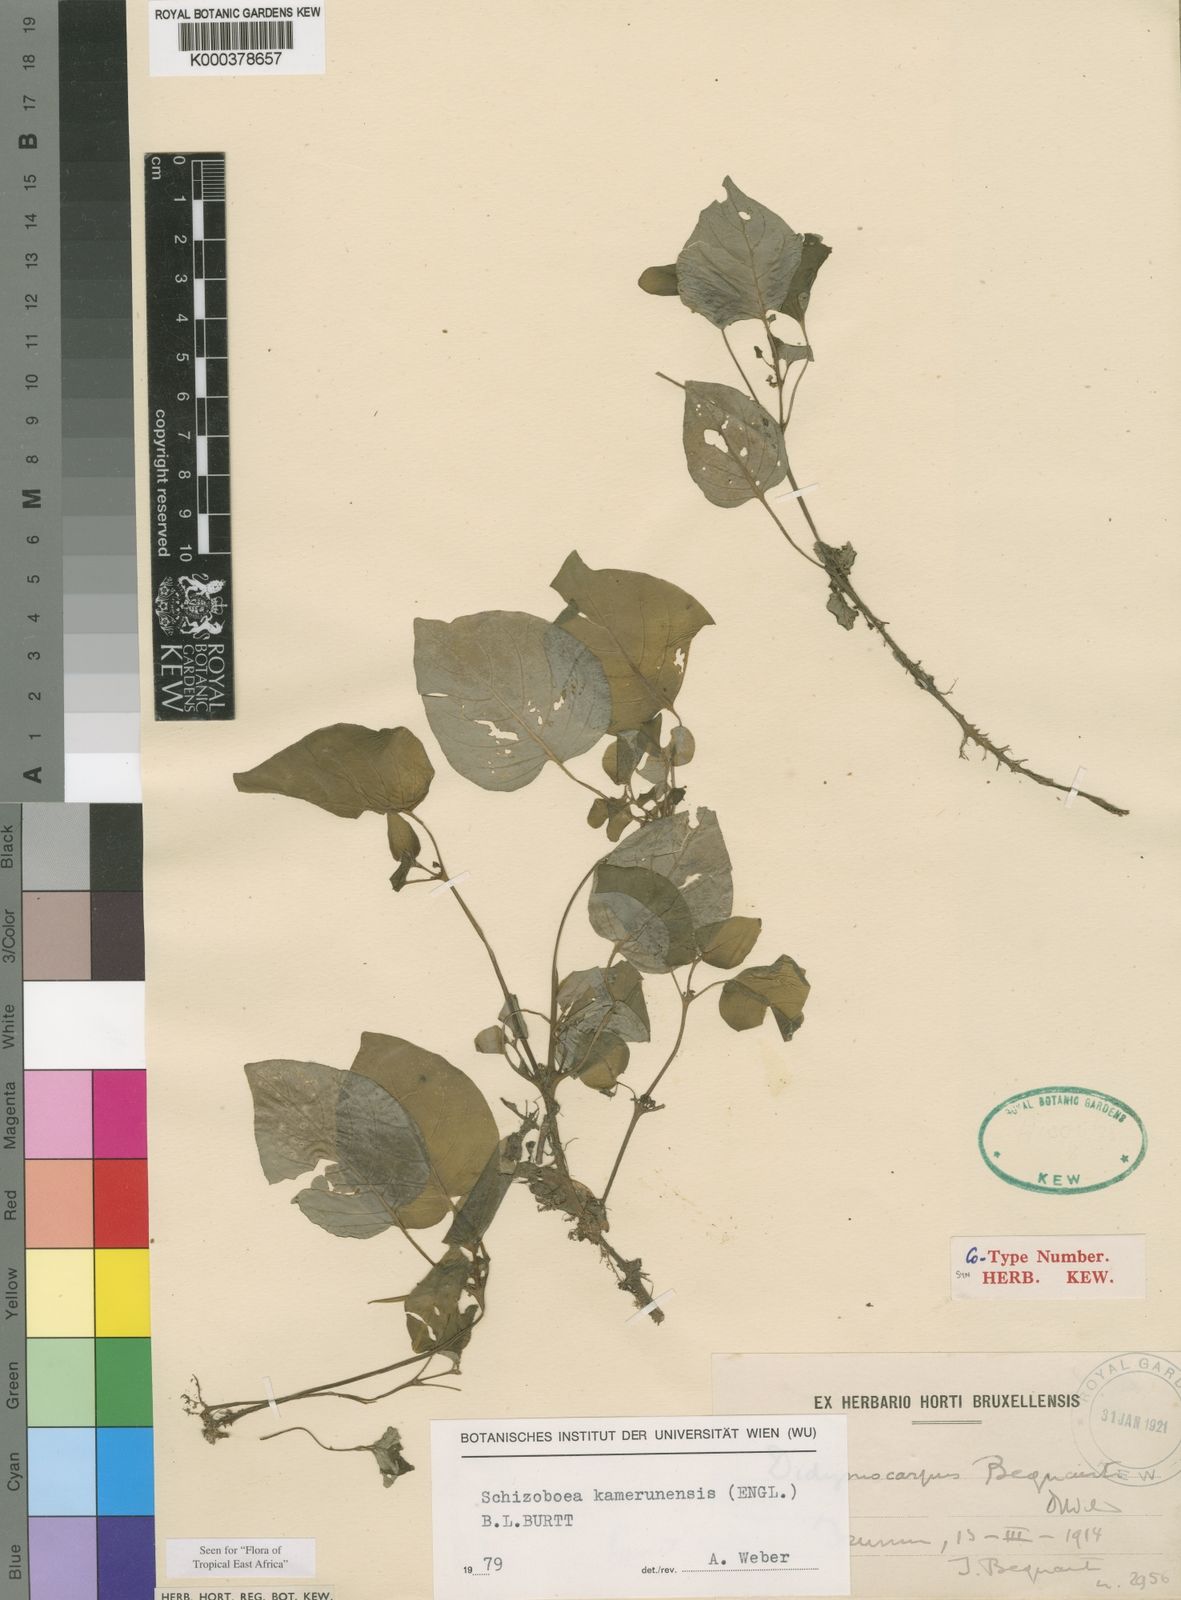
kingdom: Plantae
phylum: Tracheophyta
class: Magnoliopsida
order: Lamiales
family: Gesneriaceae
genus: Streptocarpus
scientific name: Streptocarpus kamerunensis
